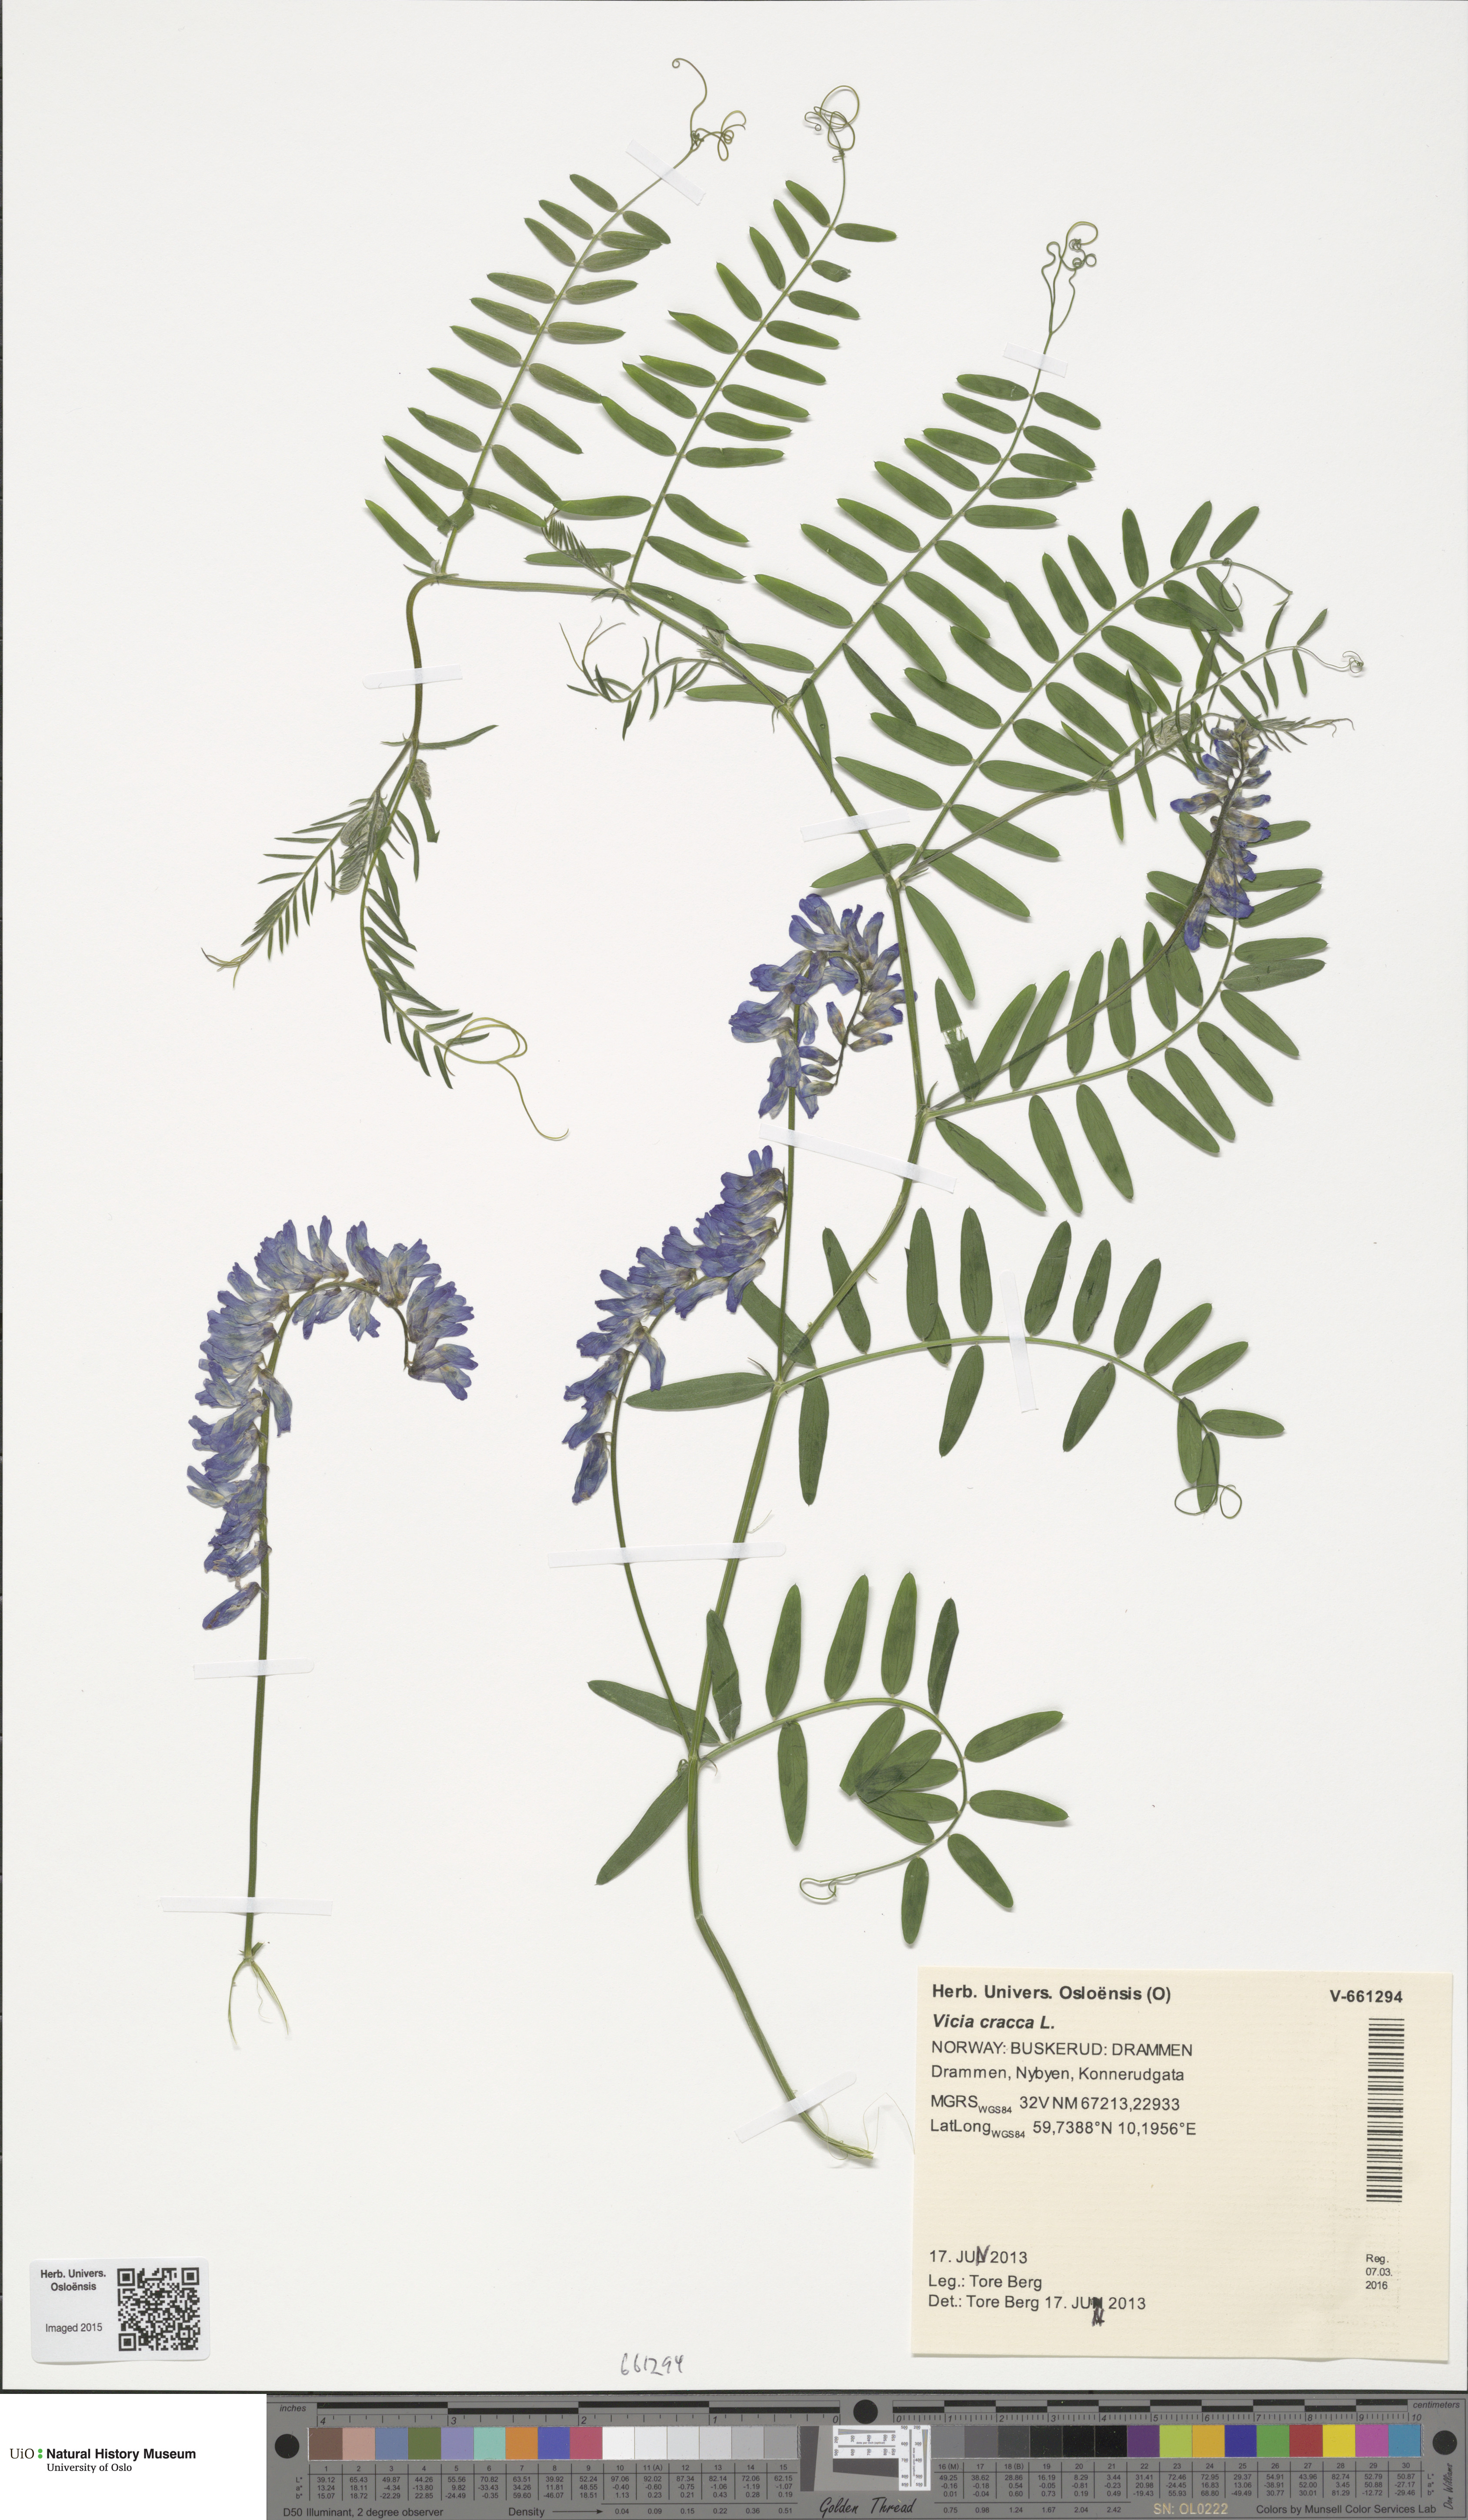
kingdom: Plantae
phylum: Tracheophyta
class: Magnoliopsida
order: Fabales
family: Fabaceae
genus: Vicia
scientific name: Vicia cracca
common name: Bird vetch
